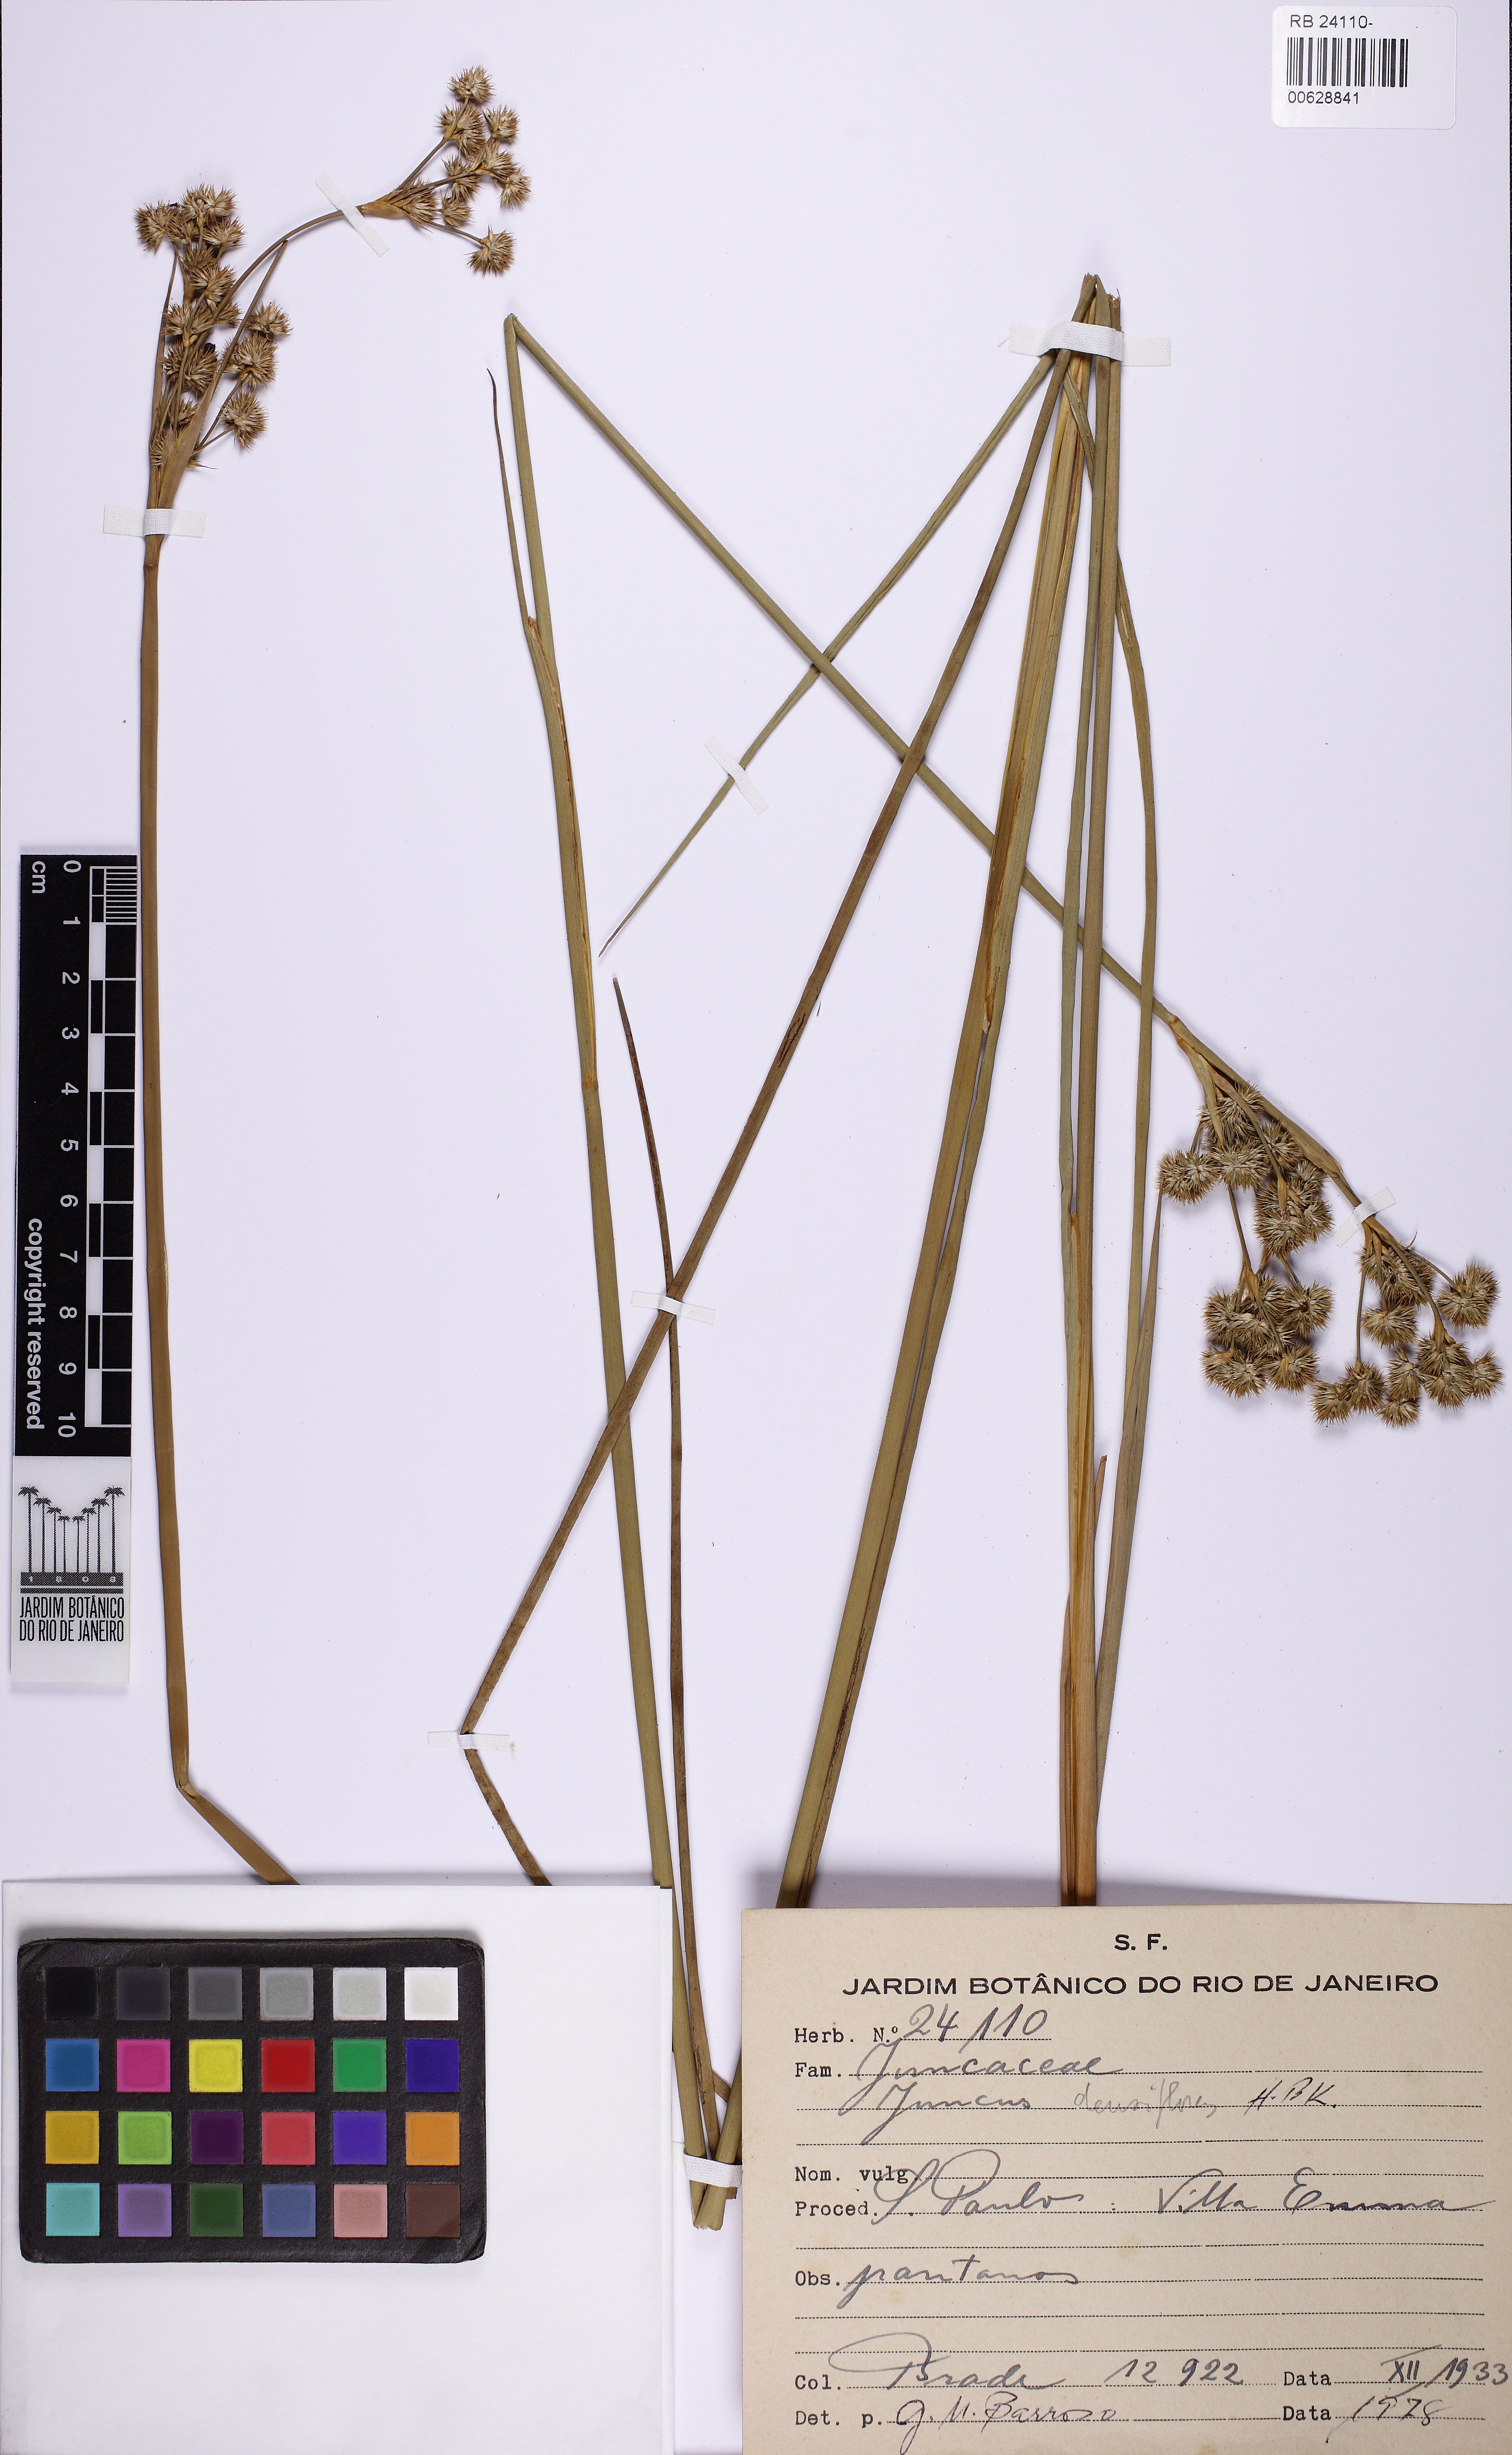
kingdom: Plantae
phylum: Tracheophyta
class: Liliopsida
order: Poales
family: Juncaceae
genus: Juncus
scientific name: Juncus densiflorus
